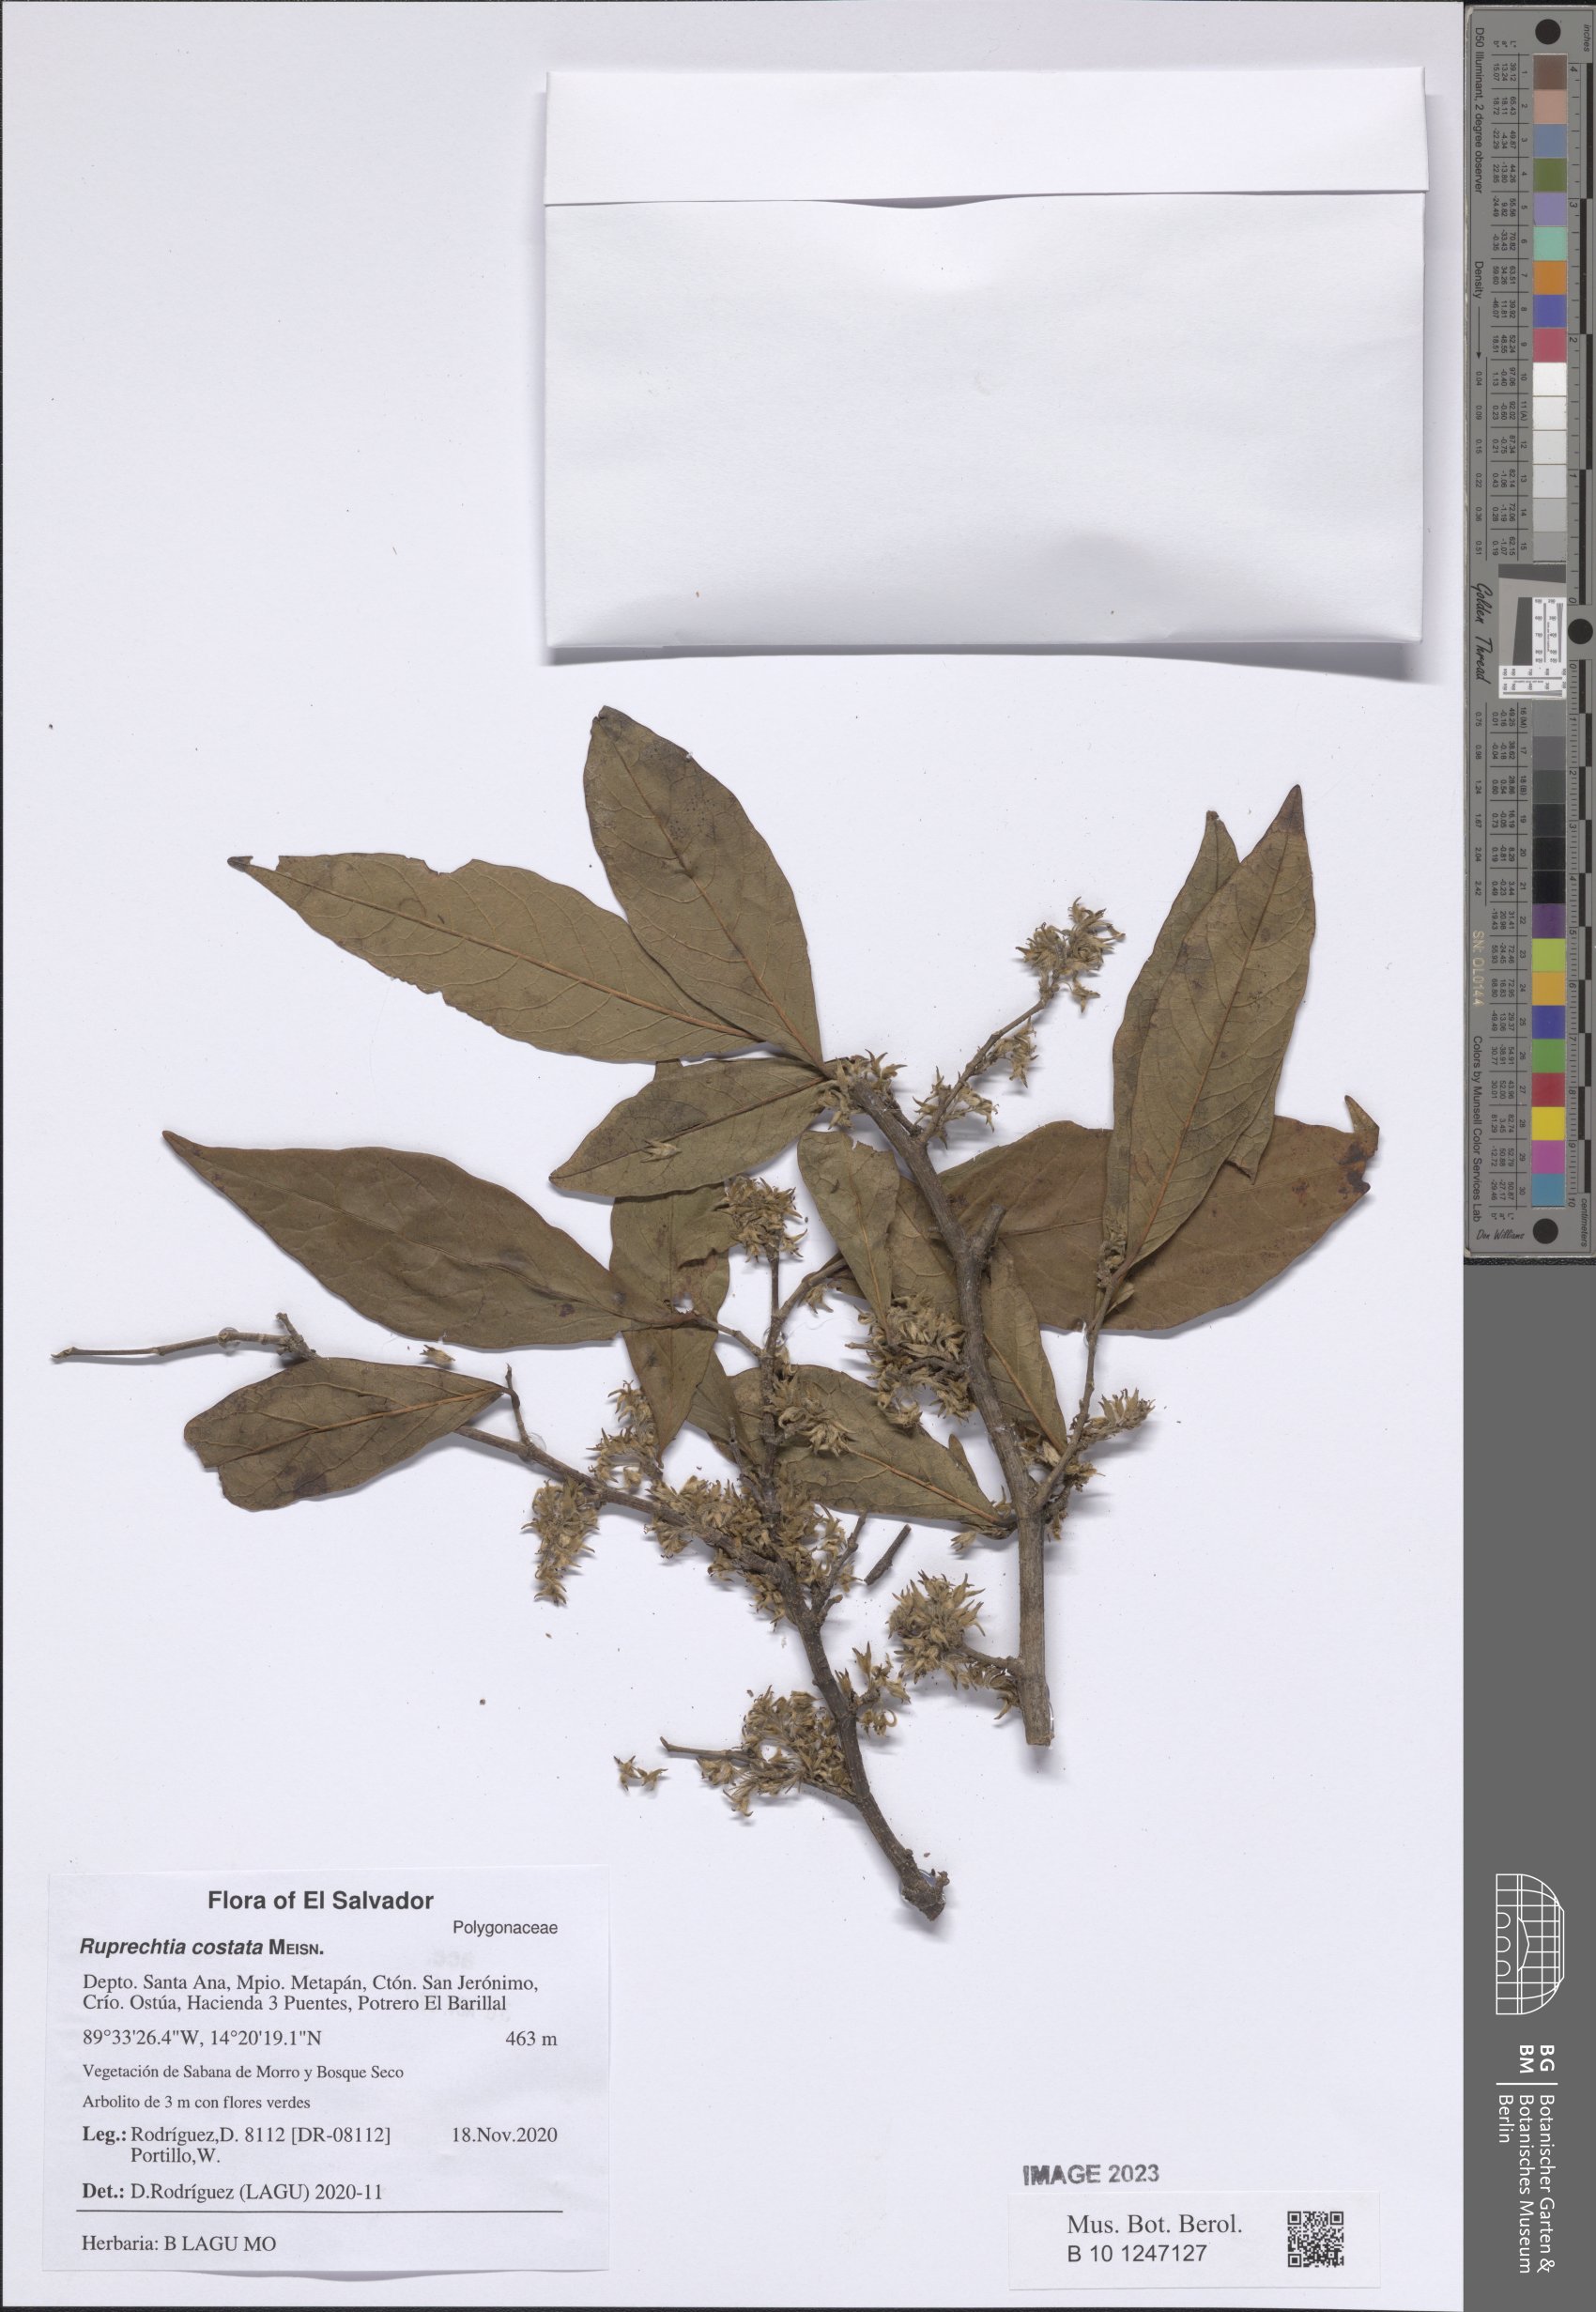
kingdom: Plantae
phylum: Tracheophyta
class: Magnoliopsida
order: Caryophyllales
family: Polygonaceae
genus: Ruprechtia
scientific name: Ruprechtia costata
